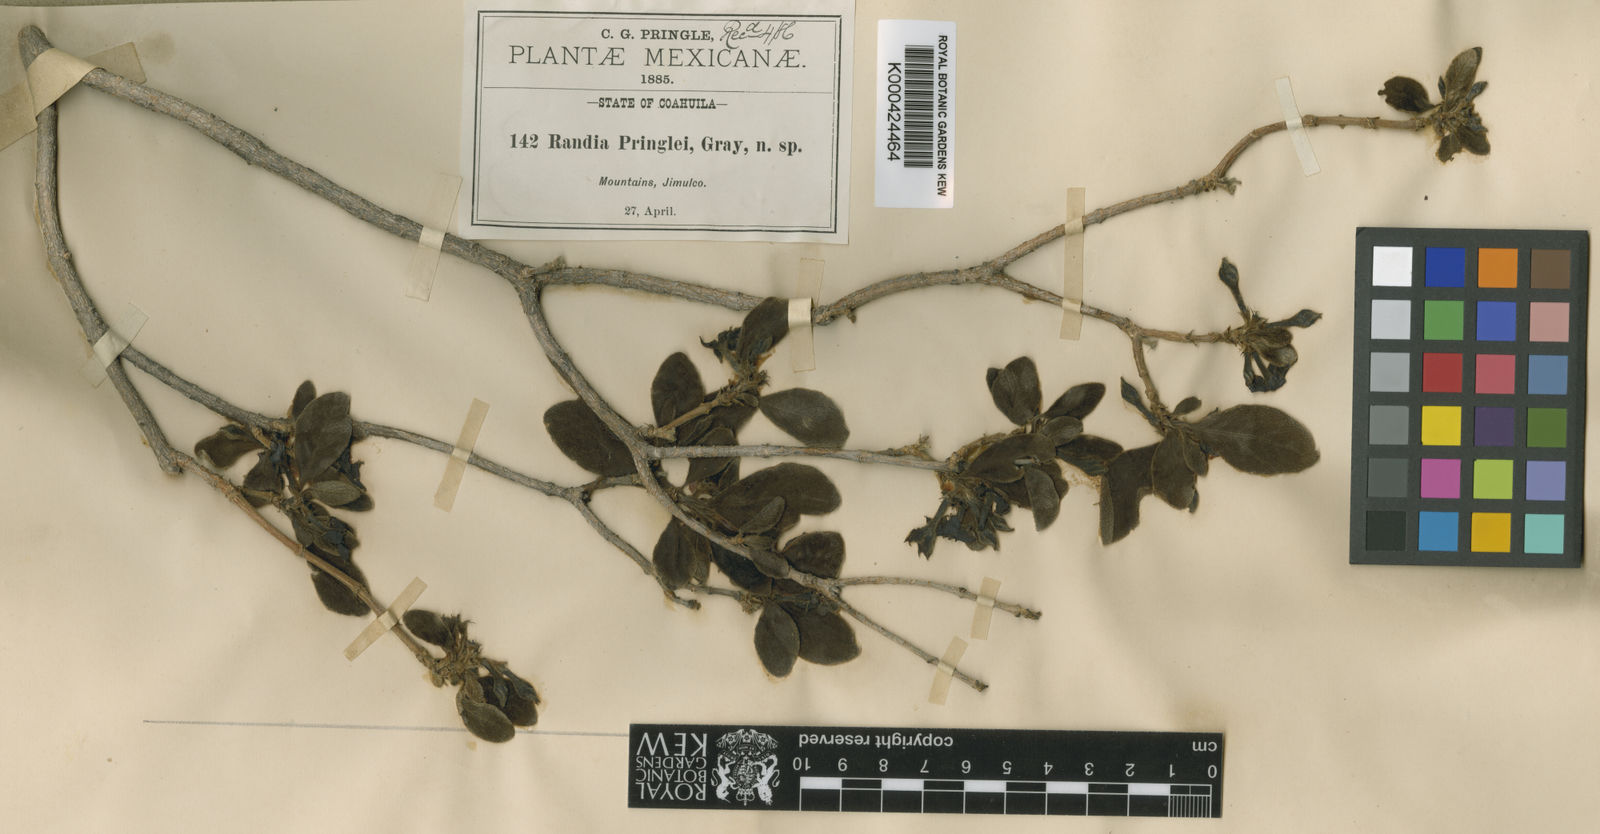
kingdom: Plantae
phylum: Tracheophyta
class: Magnoliopsida
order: Gentianales
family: Rubiaceae
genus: Randia
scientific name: Randia pringlei
